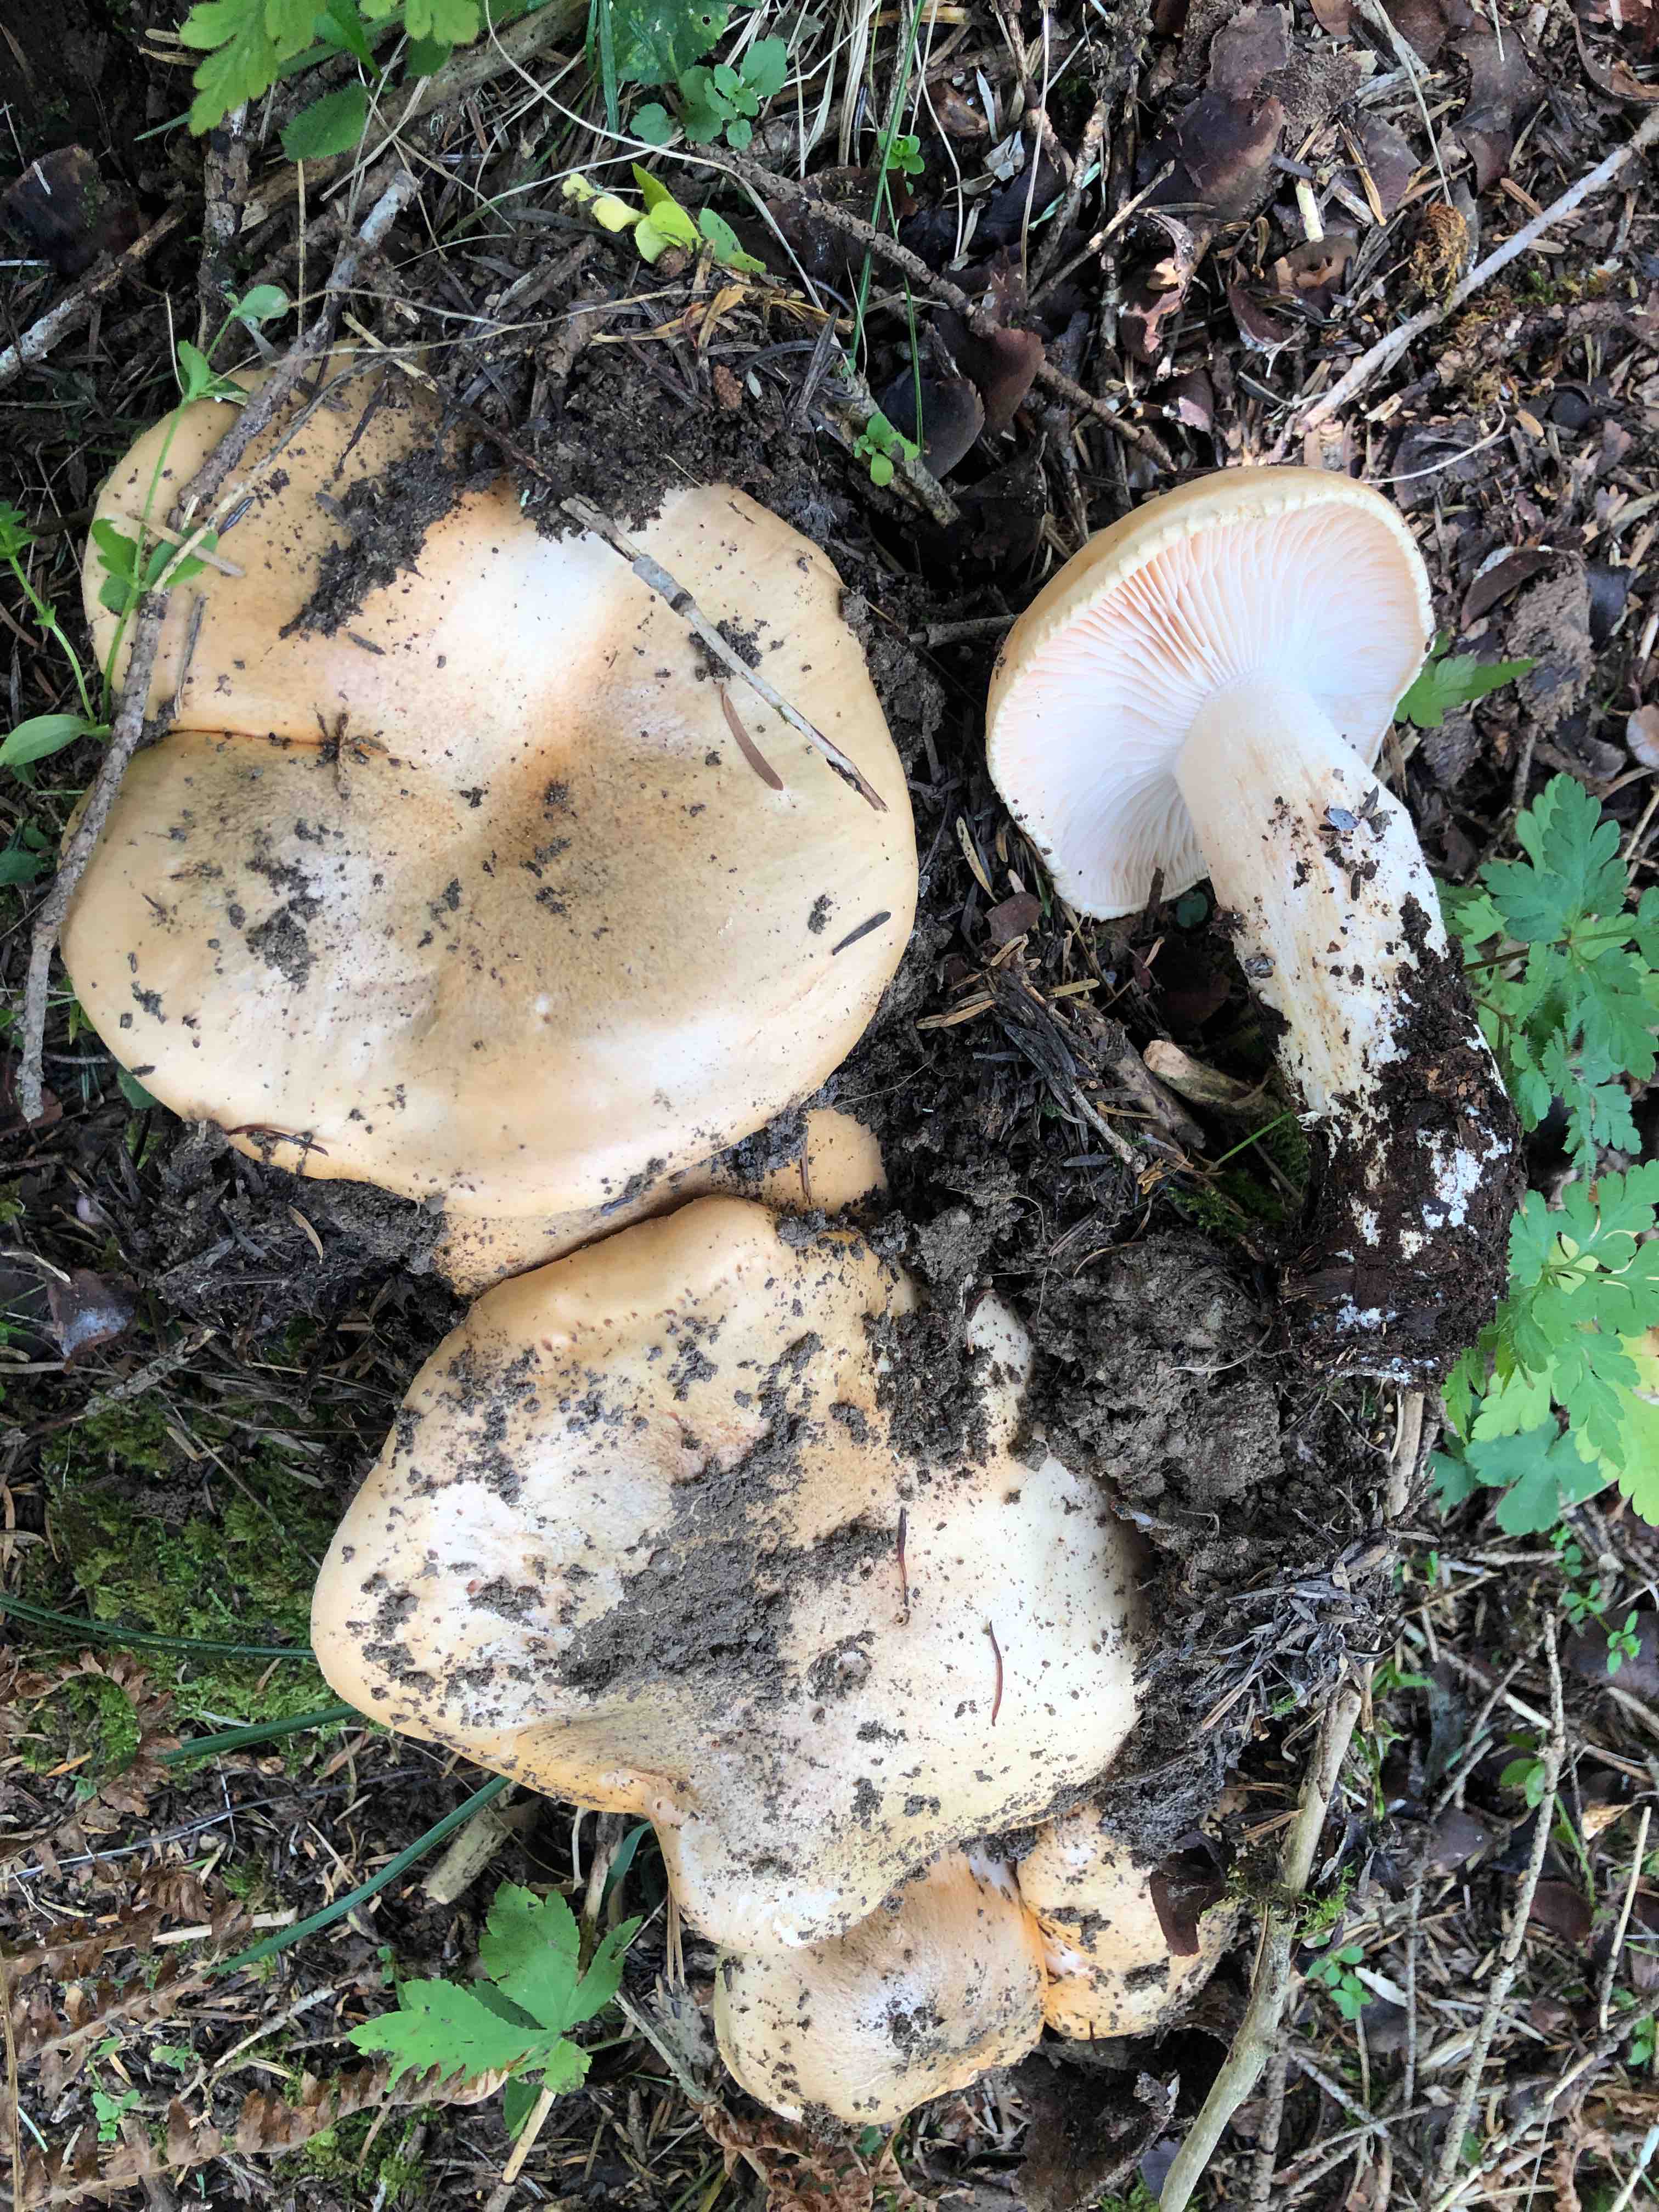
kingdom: Fungi
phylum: Basidiomycota
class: Agaricomycetes
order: Agaricales
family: Hygrophoraceae
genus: Hygrophorus
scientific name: Hygrophorus pudorinus
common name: Rosy woodwax
